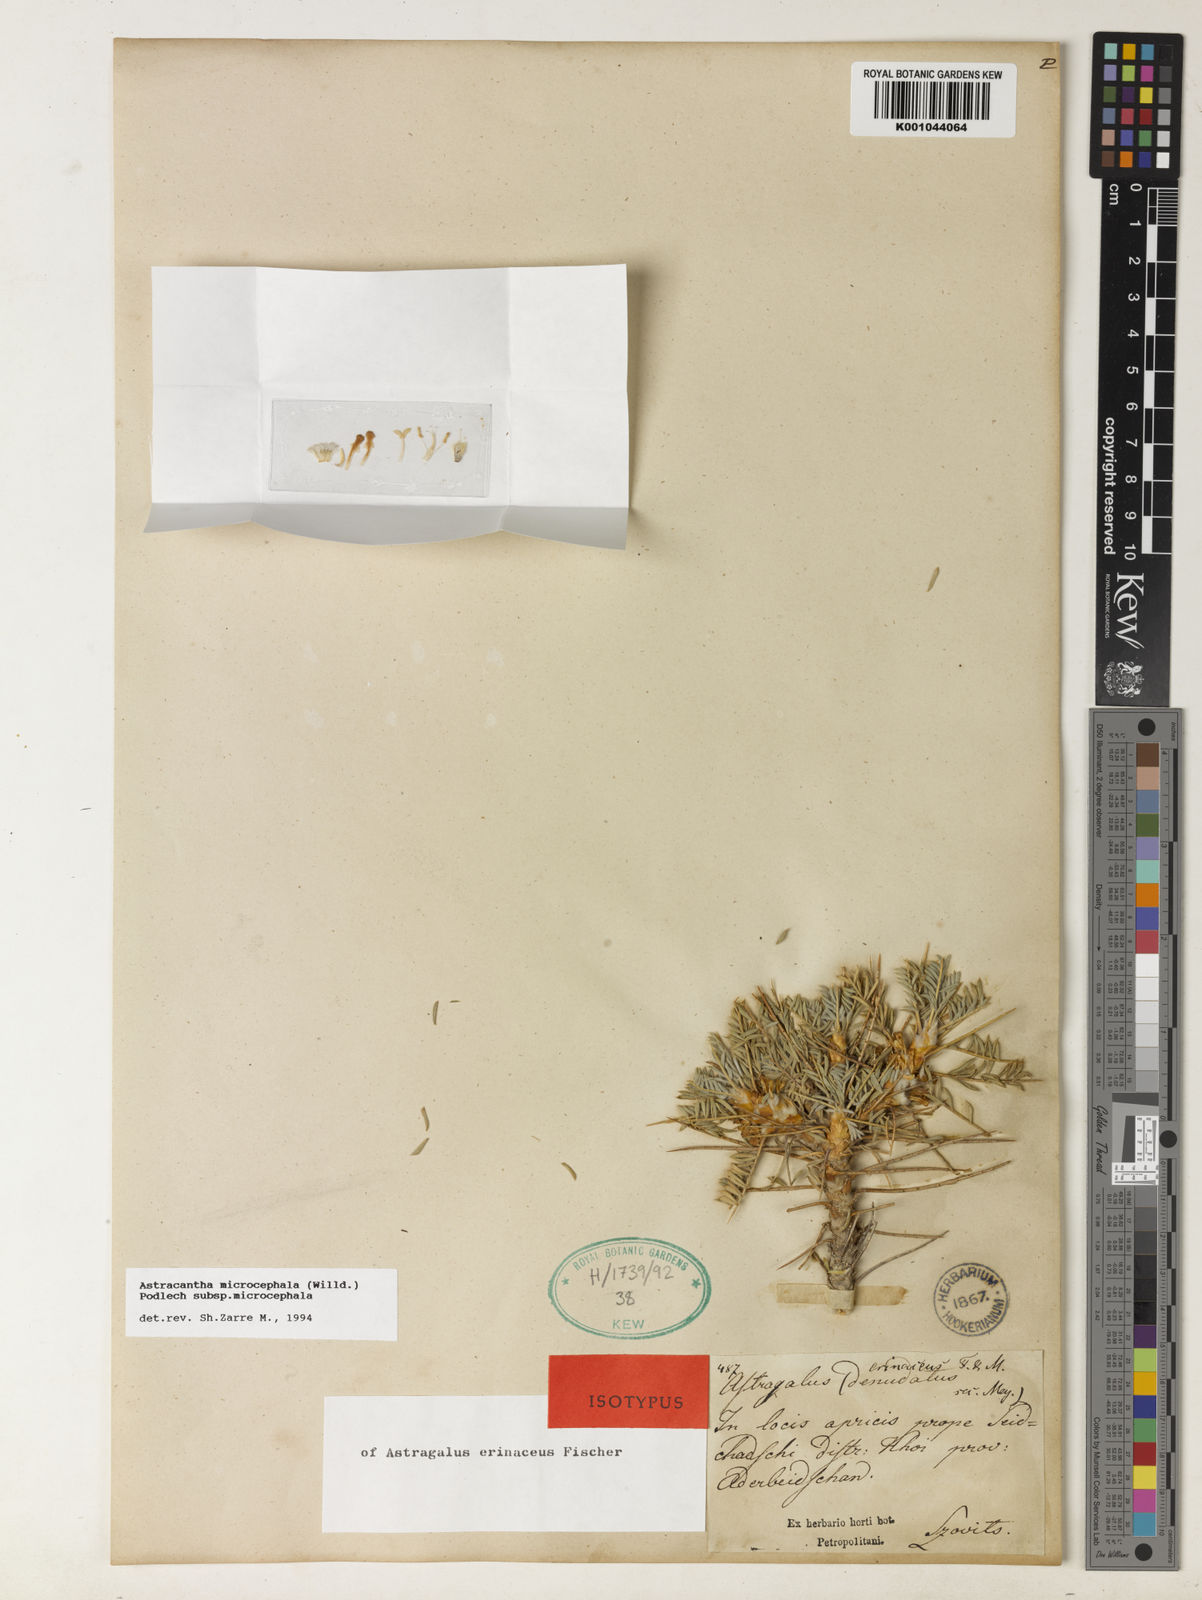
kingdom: Plantae
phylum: Tracheophyta
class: Magnoliopsida
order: Fabales
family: Fabaceae
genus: Astragalus
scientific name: Astragalus microcephalus
